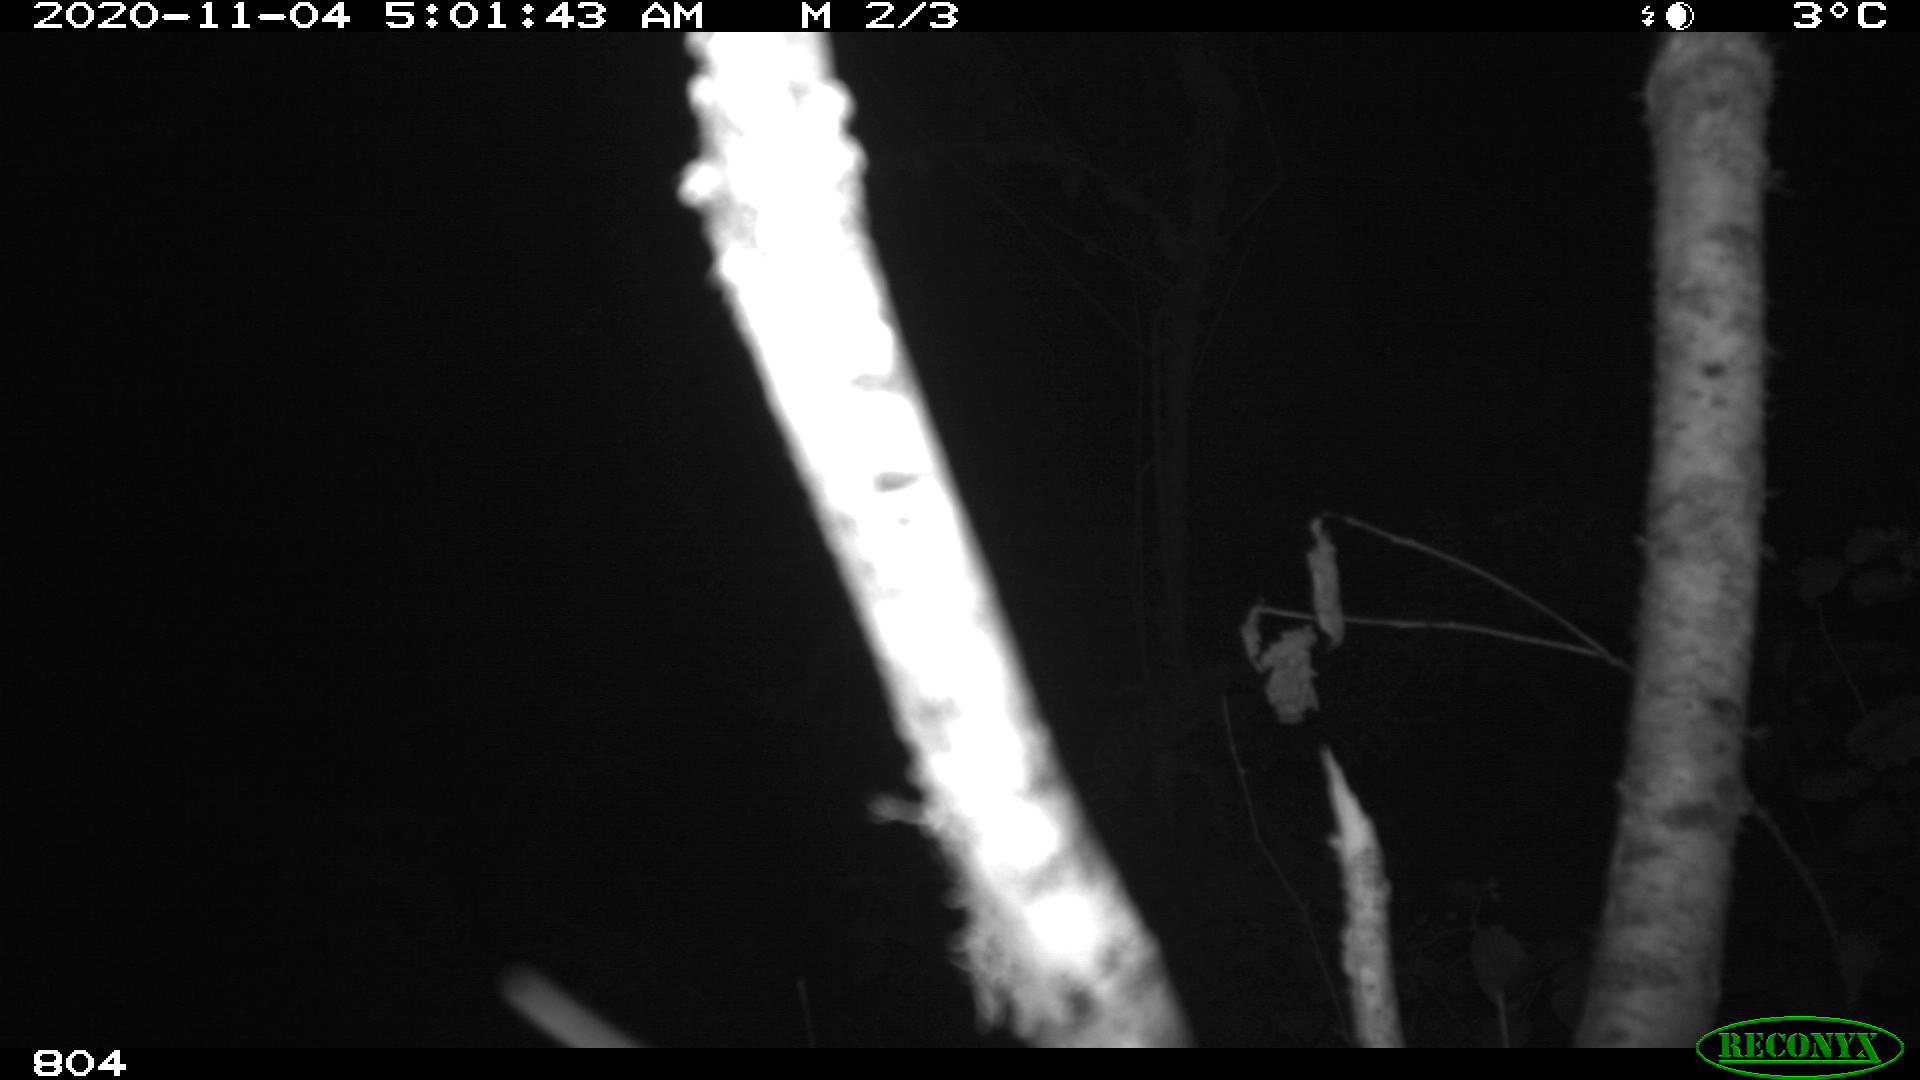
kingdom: Animalia
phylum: Chordata
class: Mammalia
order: Artiodactyla
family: Cervidae
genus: Capreolus
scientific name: Capreolus capreolus
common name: Western roe deer
